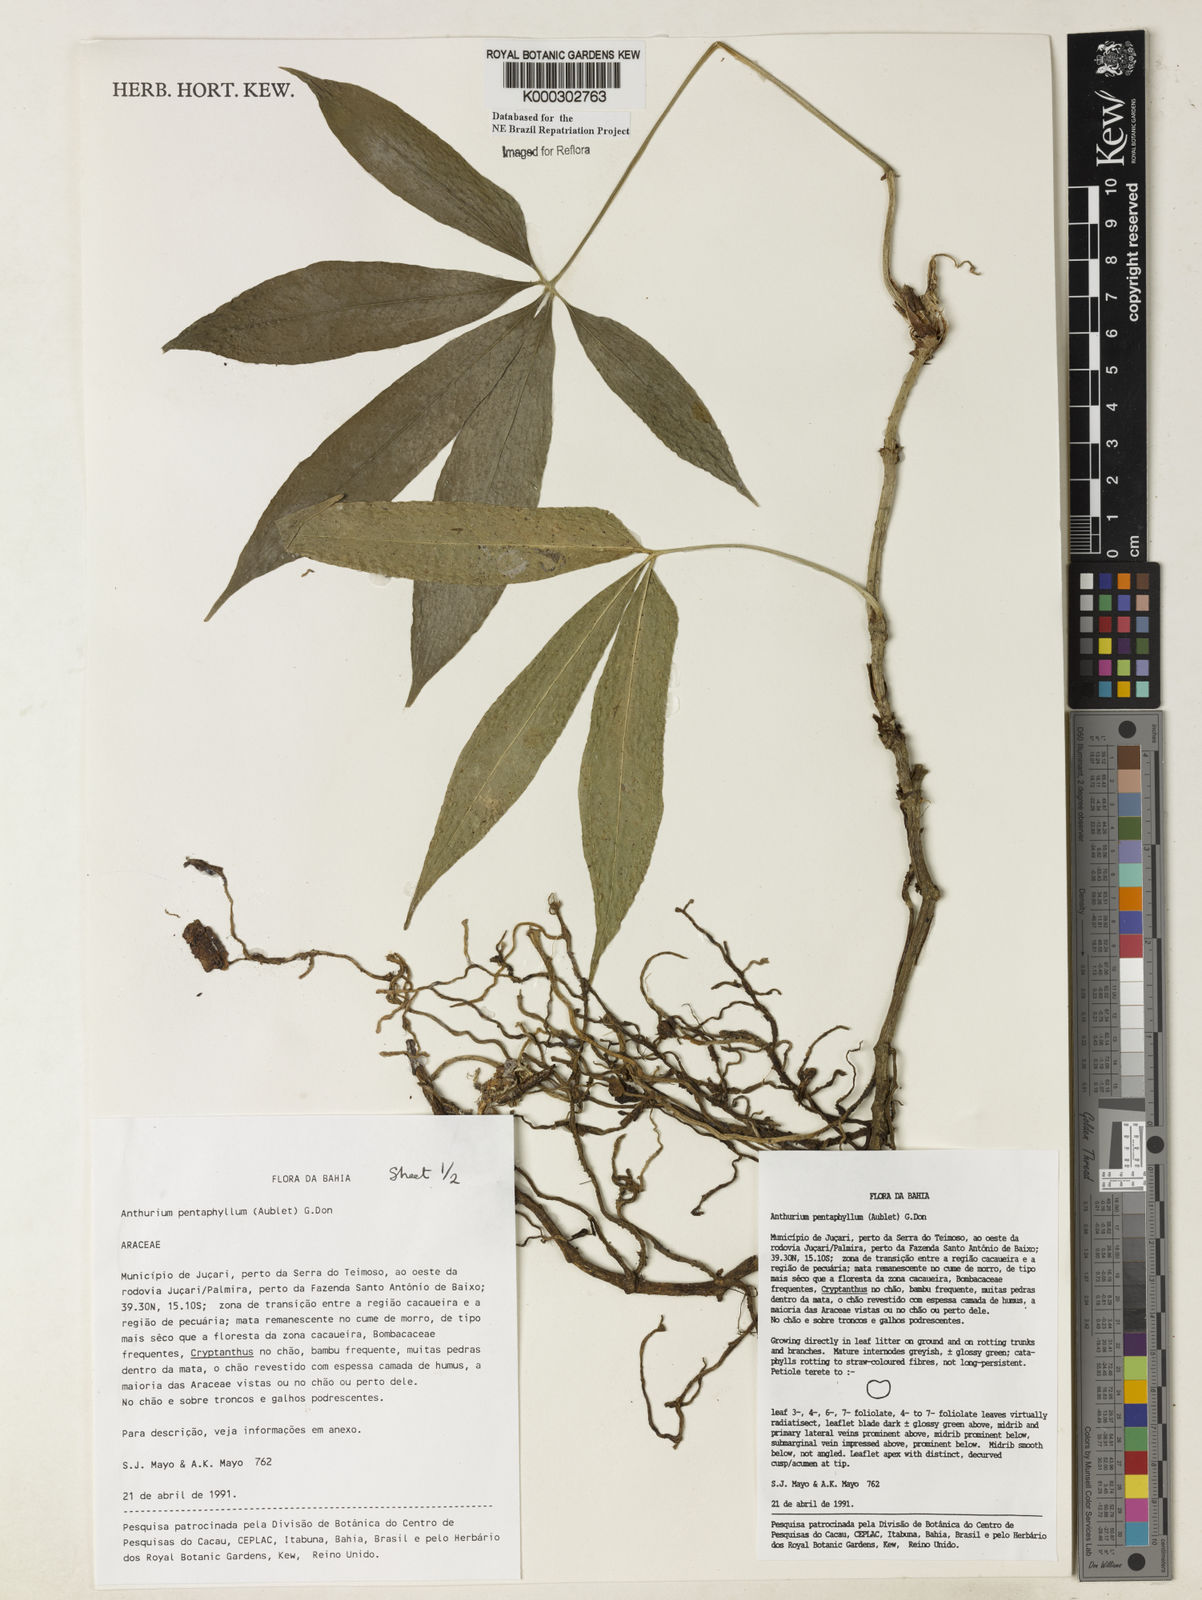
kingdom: Plantae
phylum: Tracheophyta
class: Liliopsida
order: Alismatales
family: Araceae
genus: Anthurium
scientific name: Anthurium pentaphyllum
